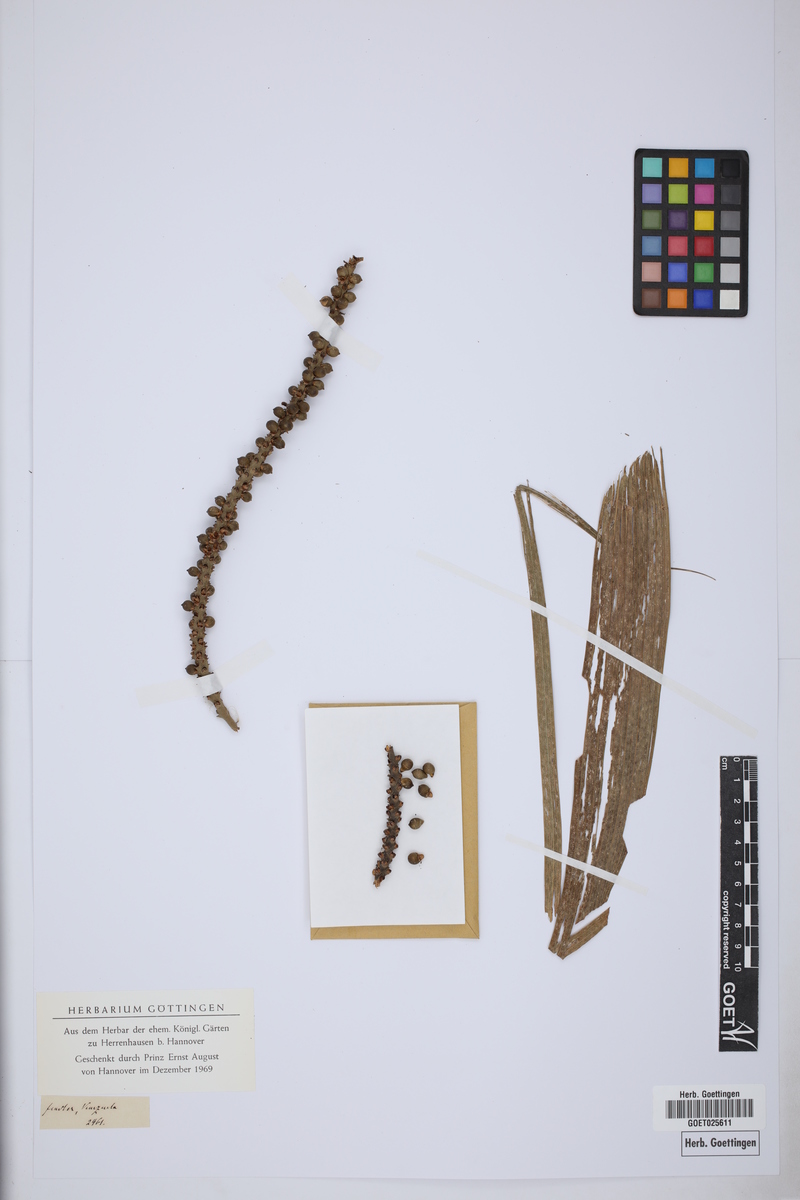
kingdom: Plantae
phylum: Tracheophyta
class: Liliopsida
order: Arecales
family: Arecaceae
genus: Geonoma
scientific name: Geonoma undata
